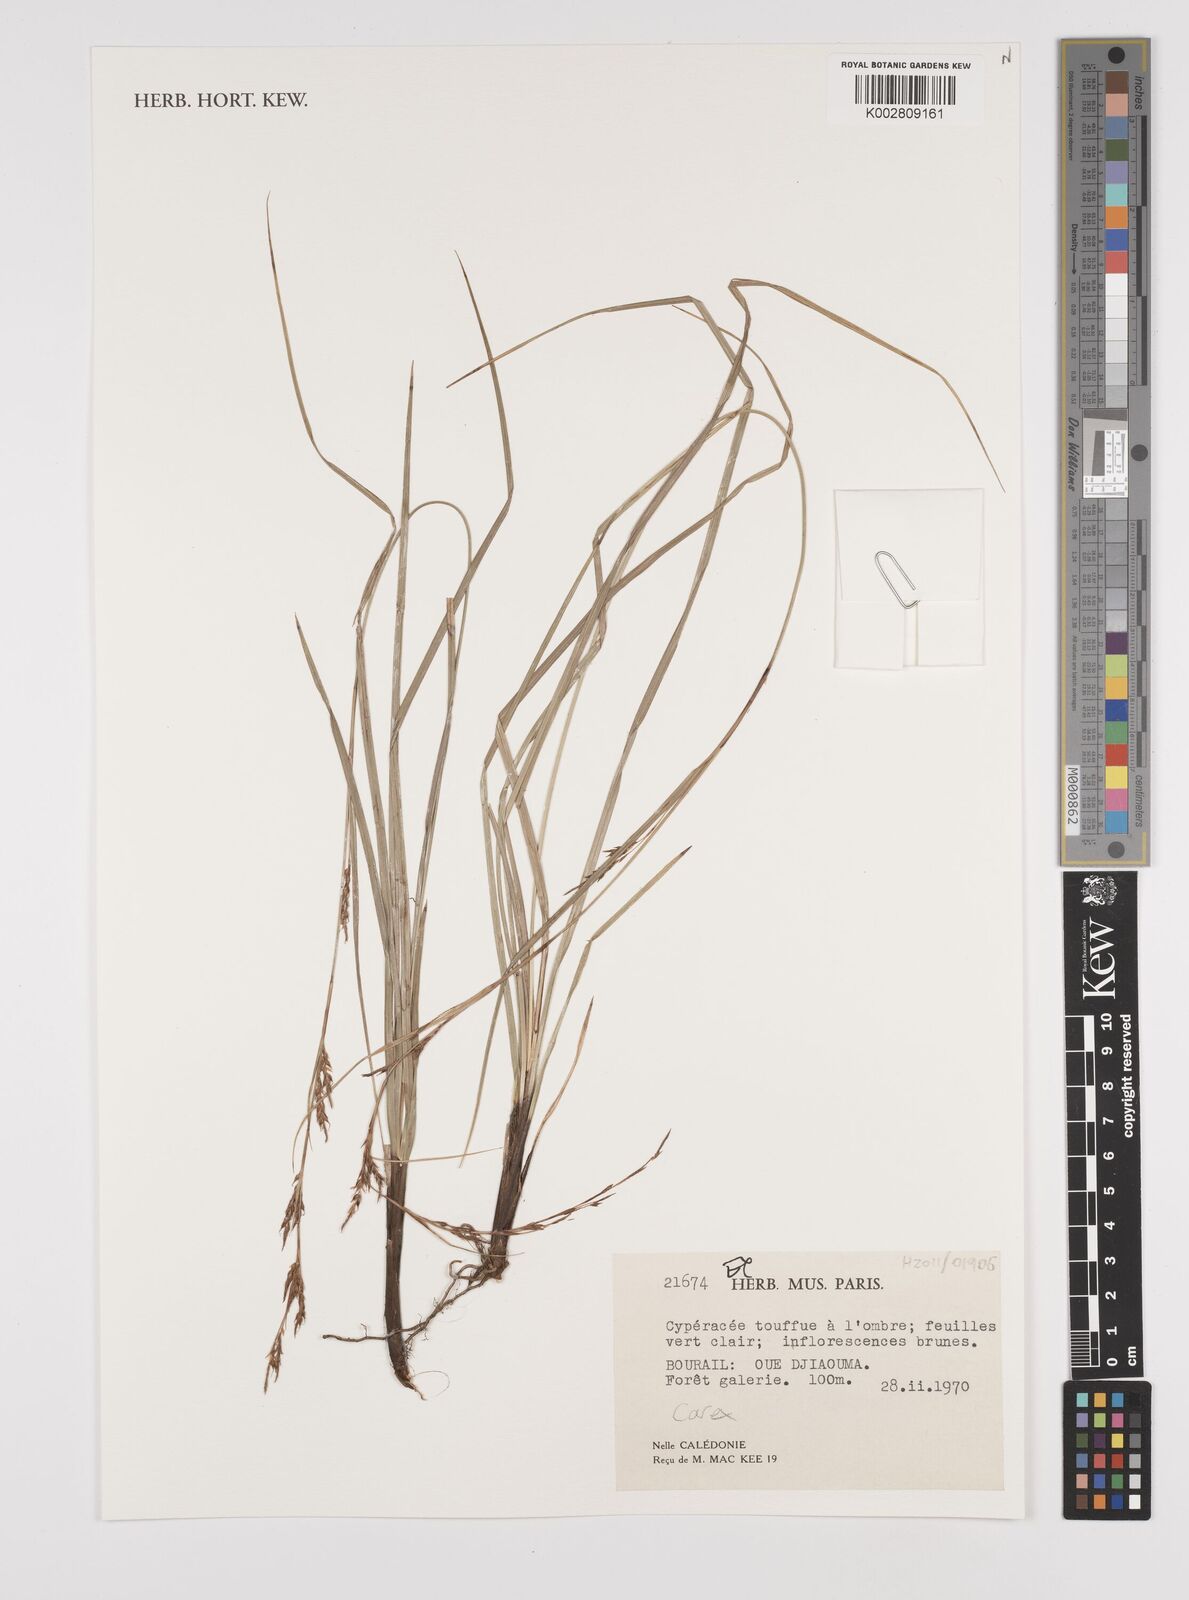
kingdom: Plantae
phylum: Tracheophyta
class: Liliopsida
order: Poales
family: Cyperaceae
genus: Carex
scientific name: Carex
